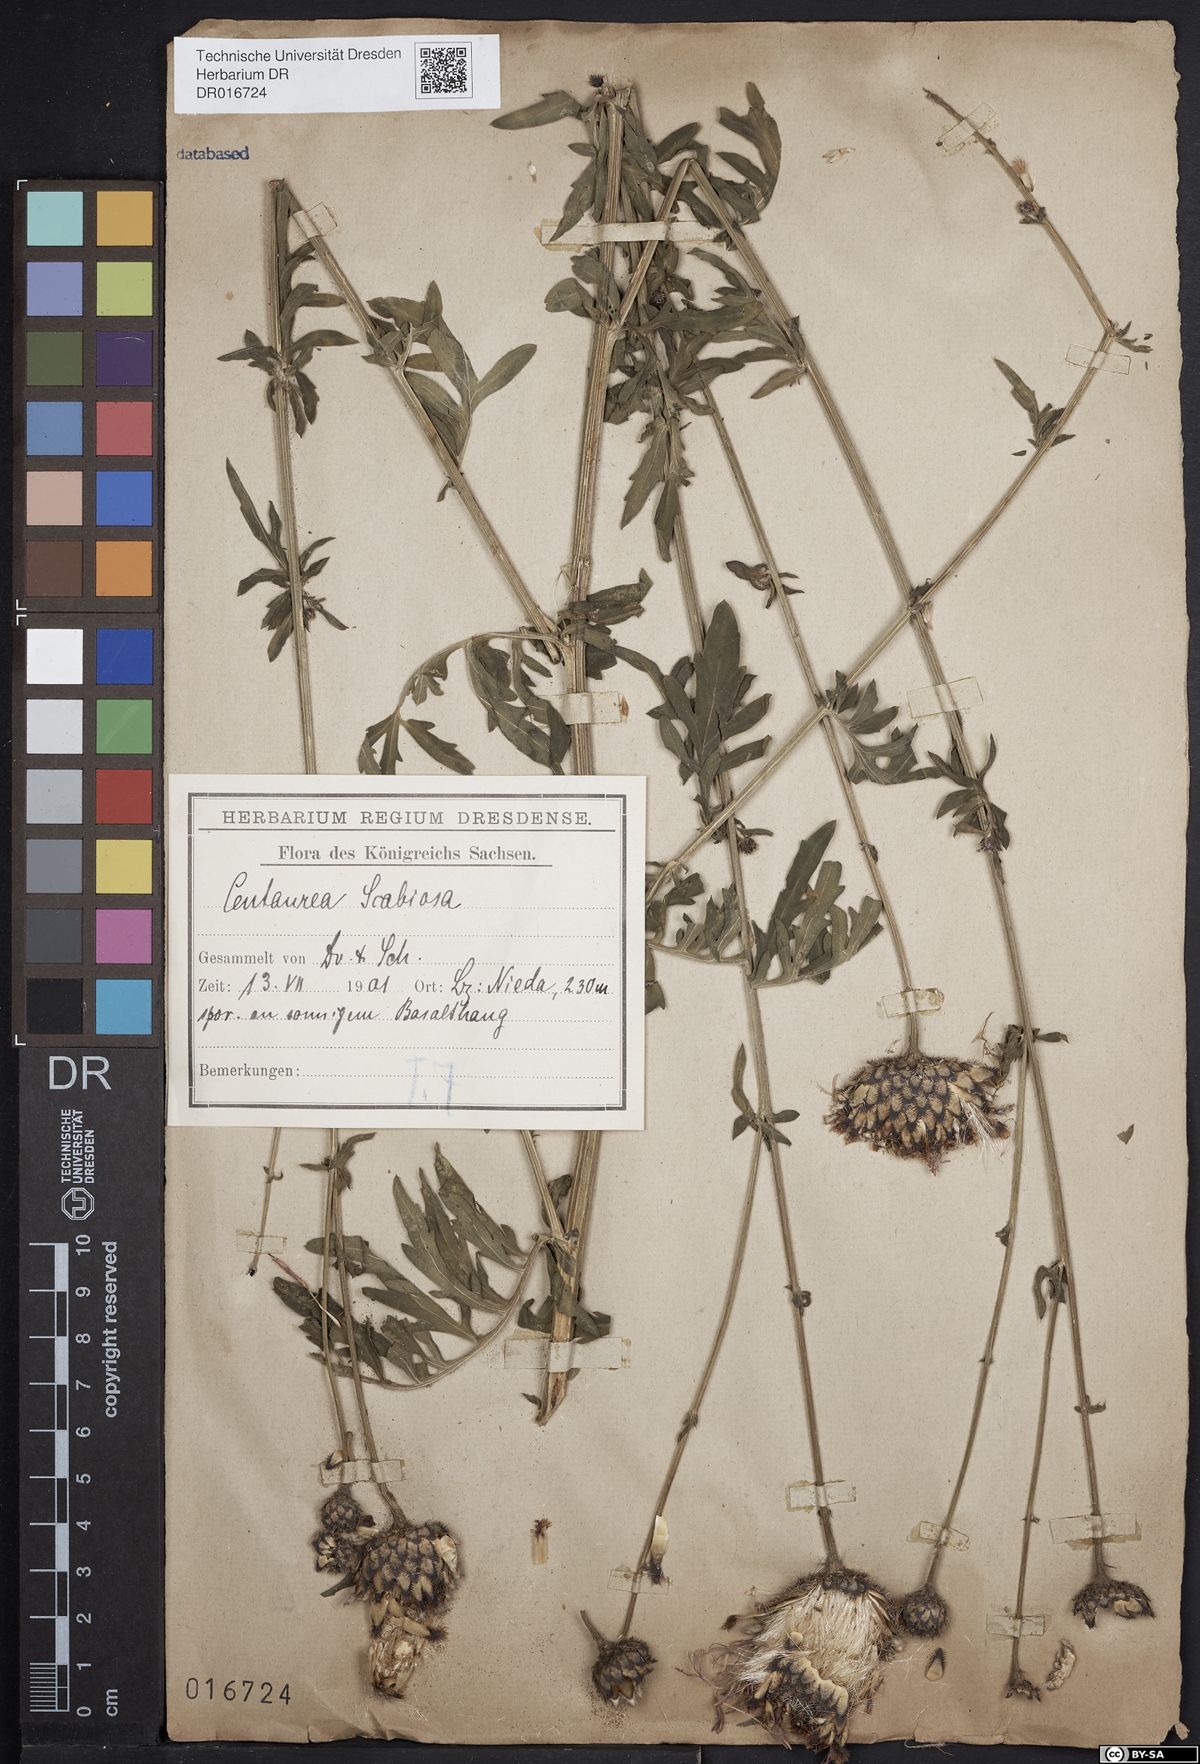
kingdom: Plantae
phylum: Tracheophyta
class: Magnoliopsida
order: Asterales
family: Asteraceae
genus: Centaurea
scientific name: Centaurea scabiosa
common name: Greater knapweed
